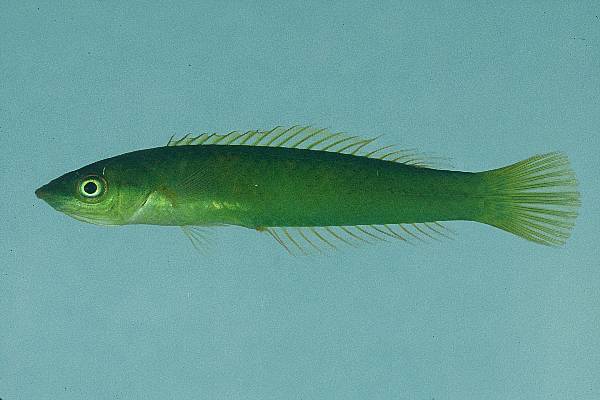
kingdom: Animalia
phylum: Chordata
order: Perciformes
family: Labridae
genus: Pseudojuloides
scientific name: Pseudojuloides argyreogaster
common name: Ring-cheek slender wrasse
